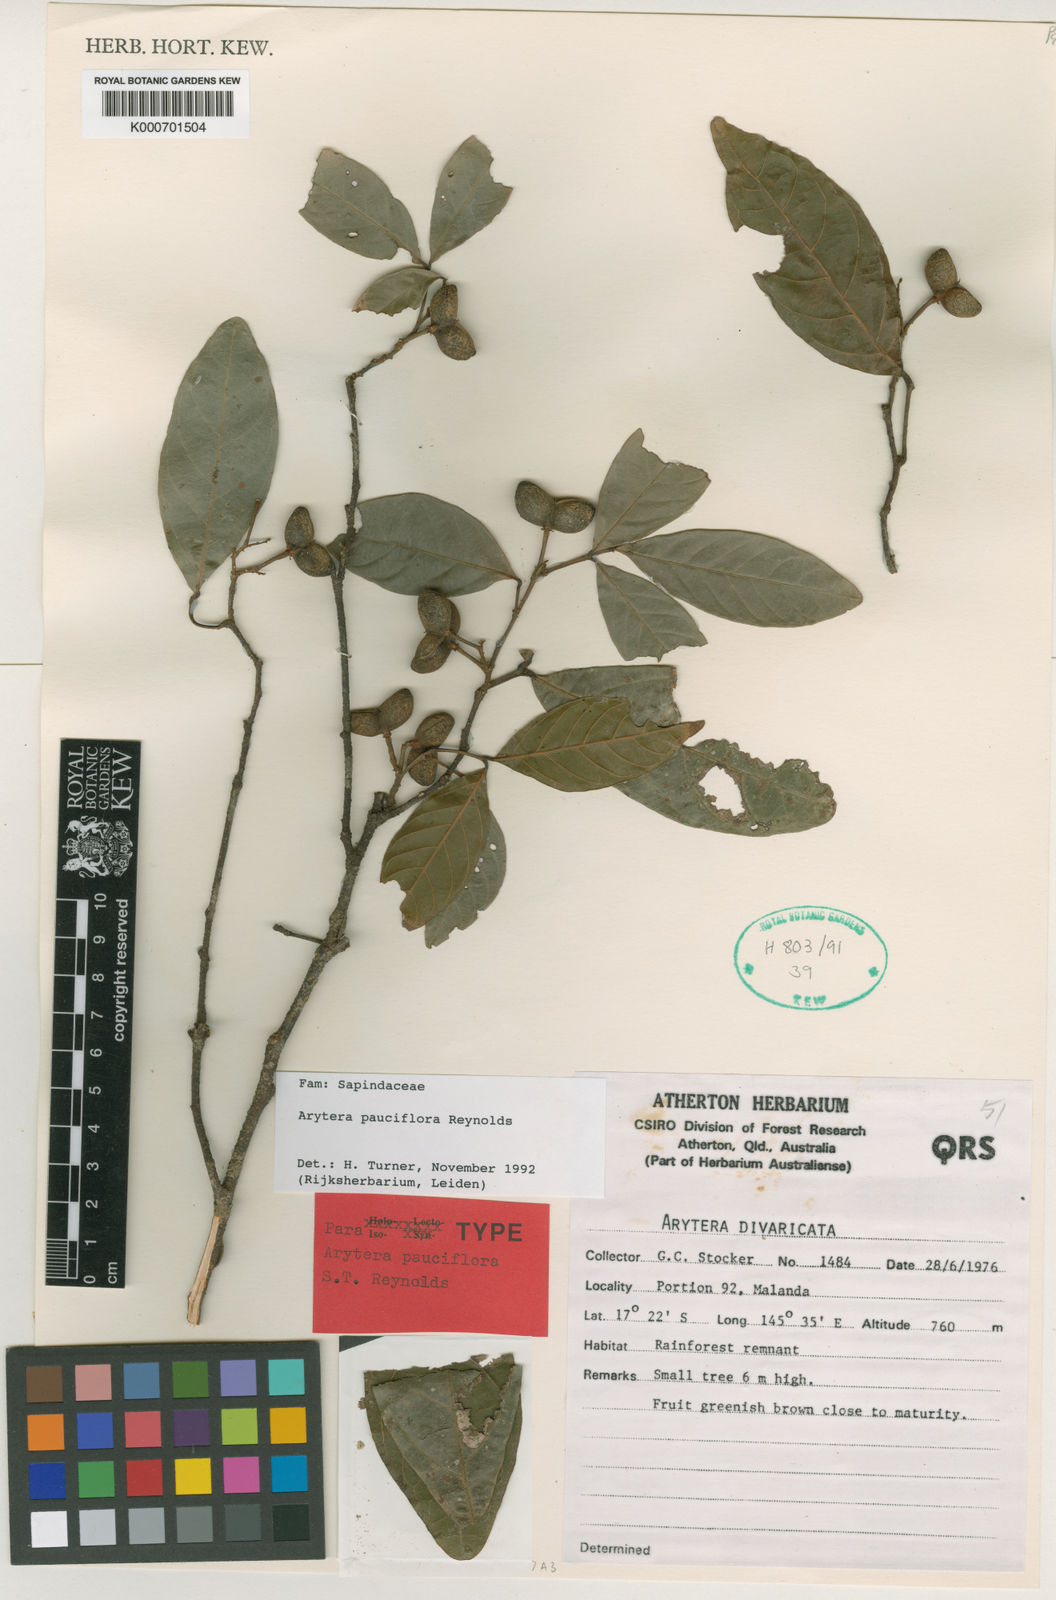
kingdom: Plantae
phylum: Tracheophyta
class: Magnoliopsida
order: Sapindales
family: Sapindaceae
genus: Arytera
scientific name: Arytera pauciflora
